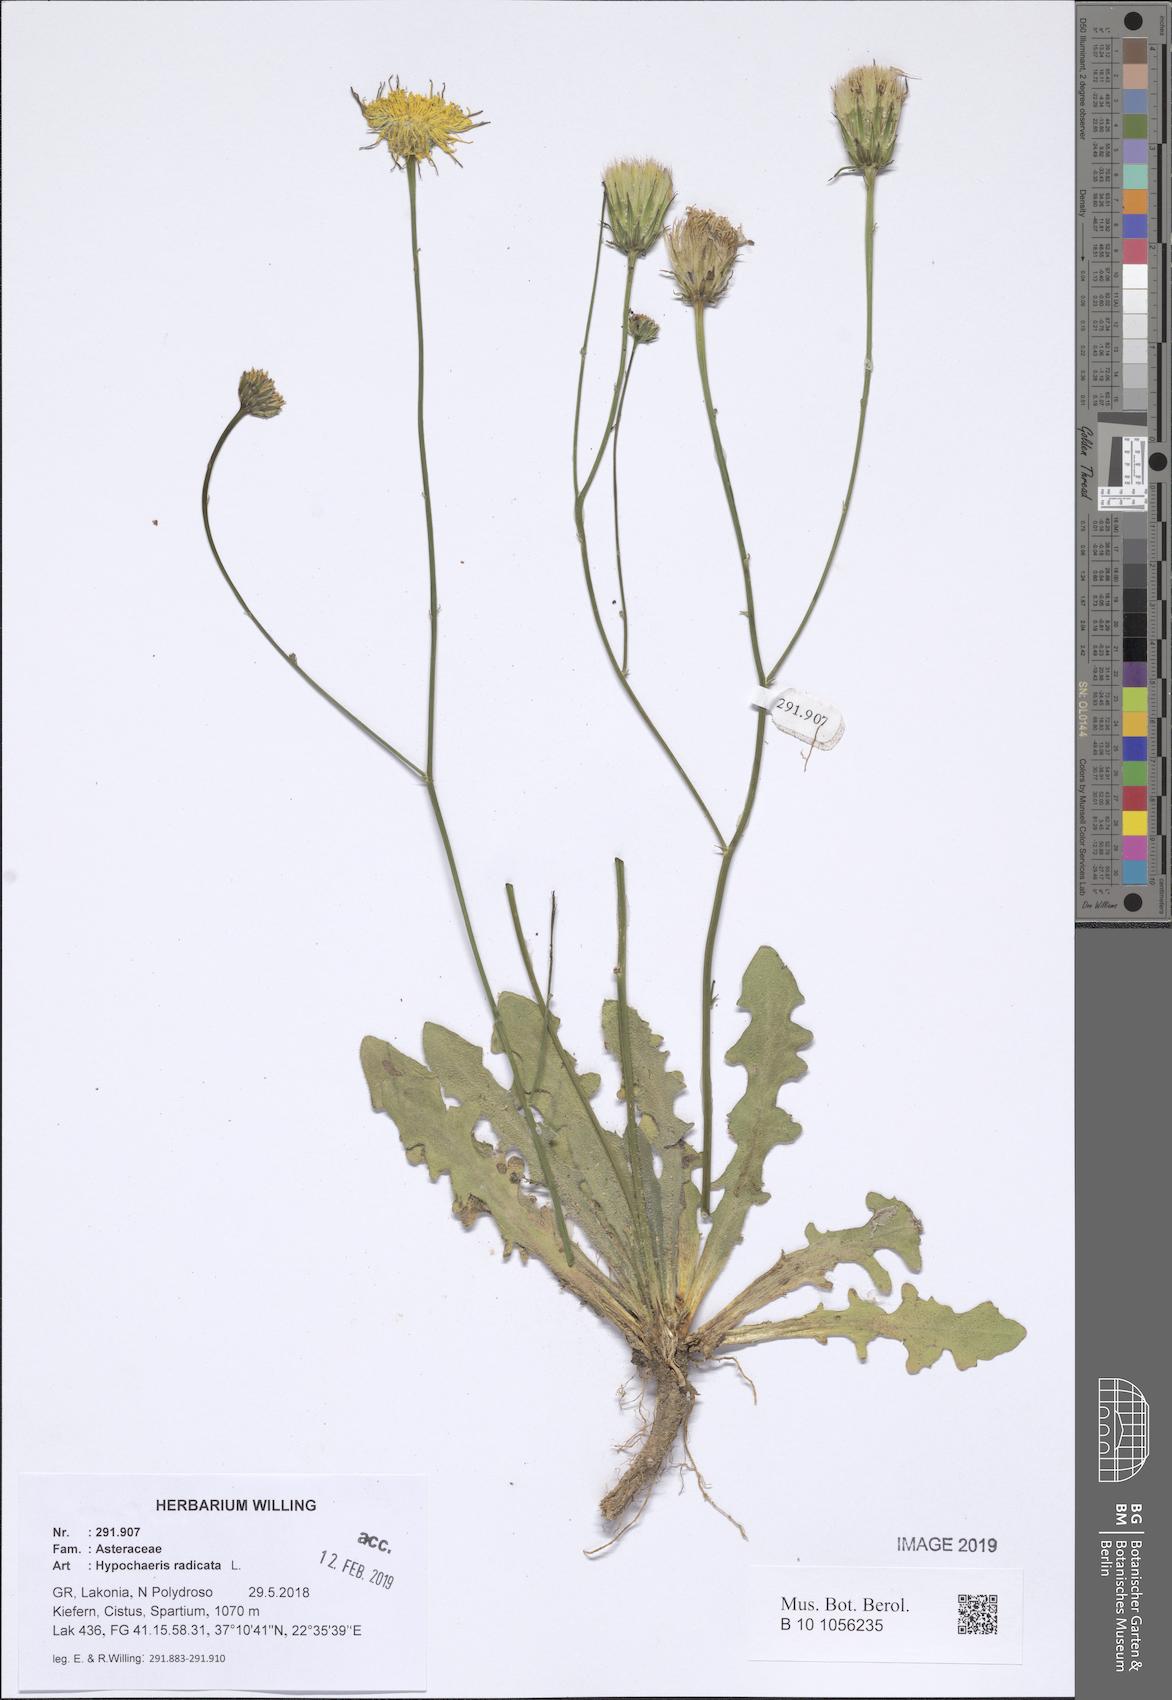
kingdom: Plantae
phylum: Tracheophyta
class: Magnoliopsida
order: Asterales
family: Asteraceae
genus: Hypochaeris
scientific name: Hypochaeris radicata
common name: Flatweed
